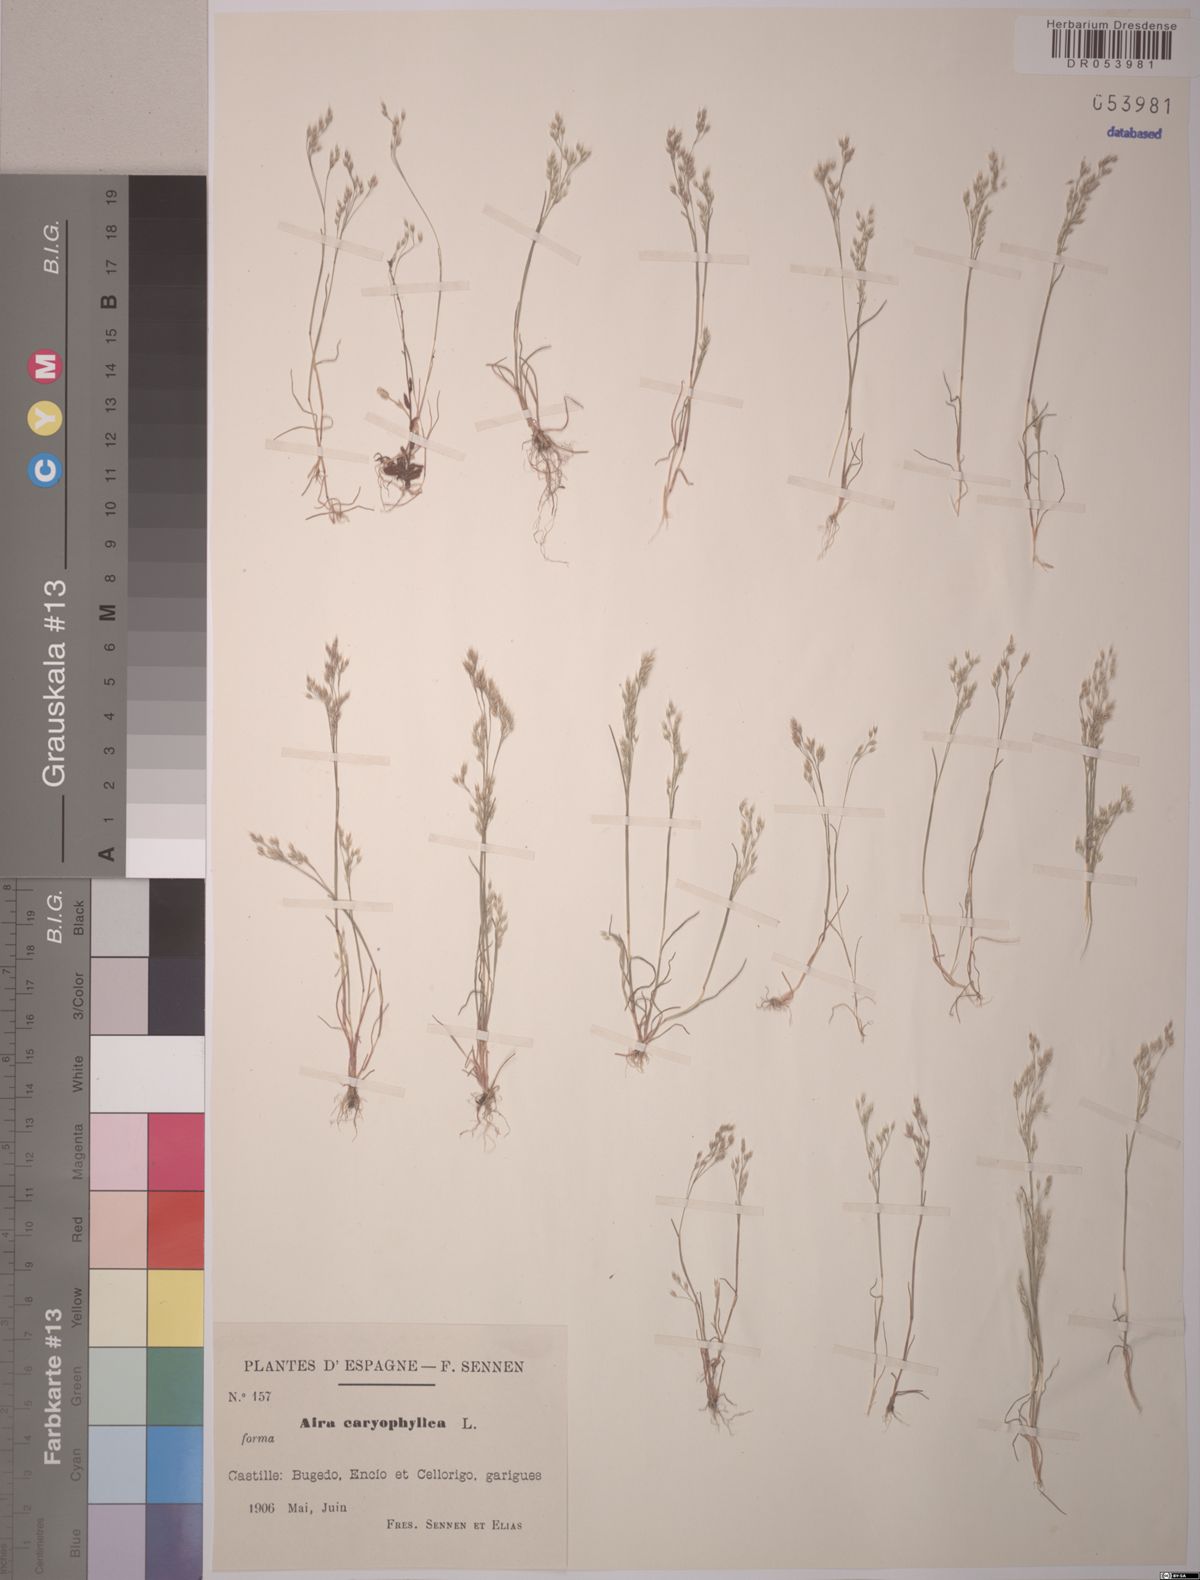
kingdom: Plantae
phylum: Tracheophyta
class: Liliopsida
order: Poales
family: Poaceae
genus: Aira
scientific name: Aira caryophyllea
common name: Silver hairgrass
